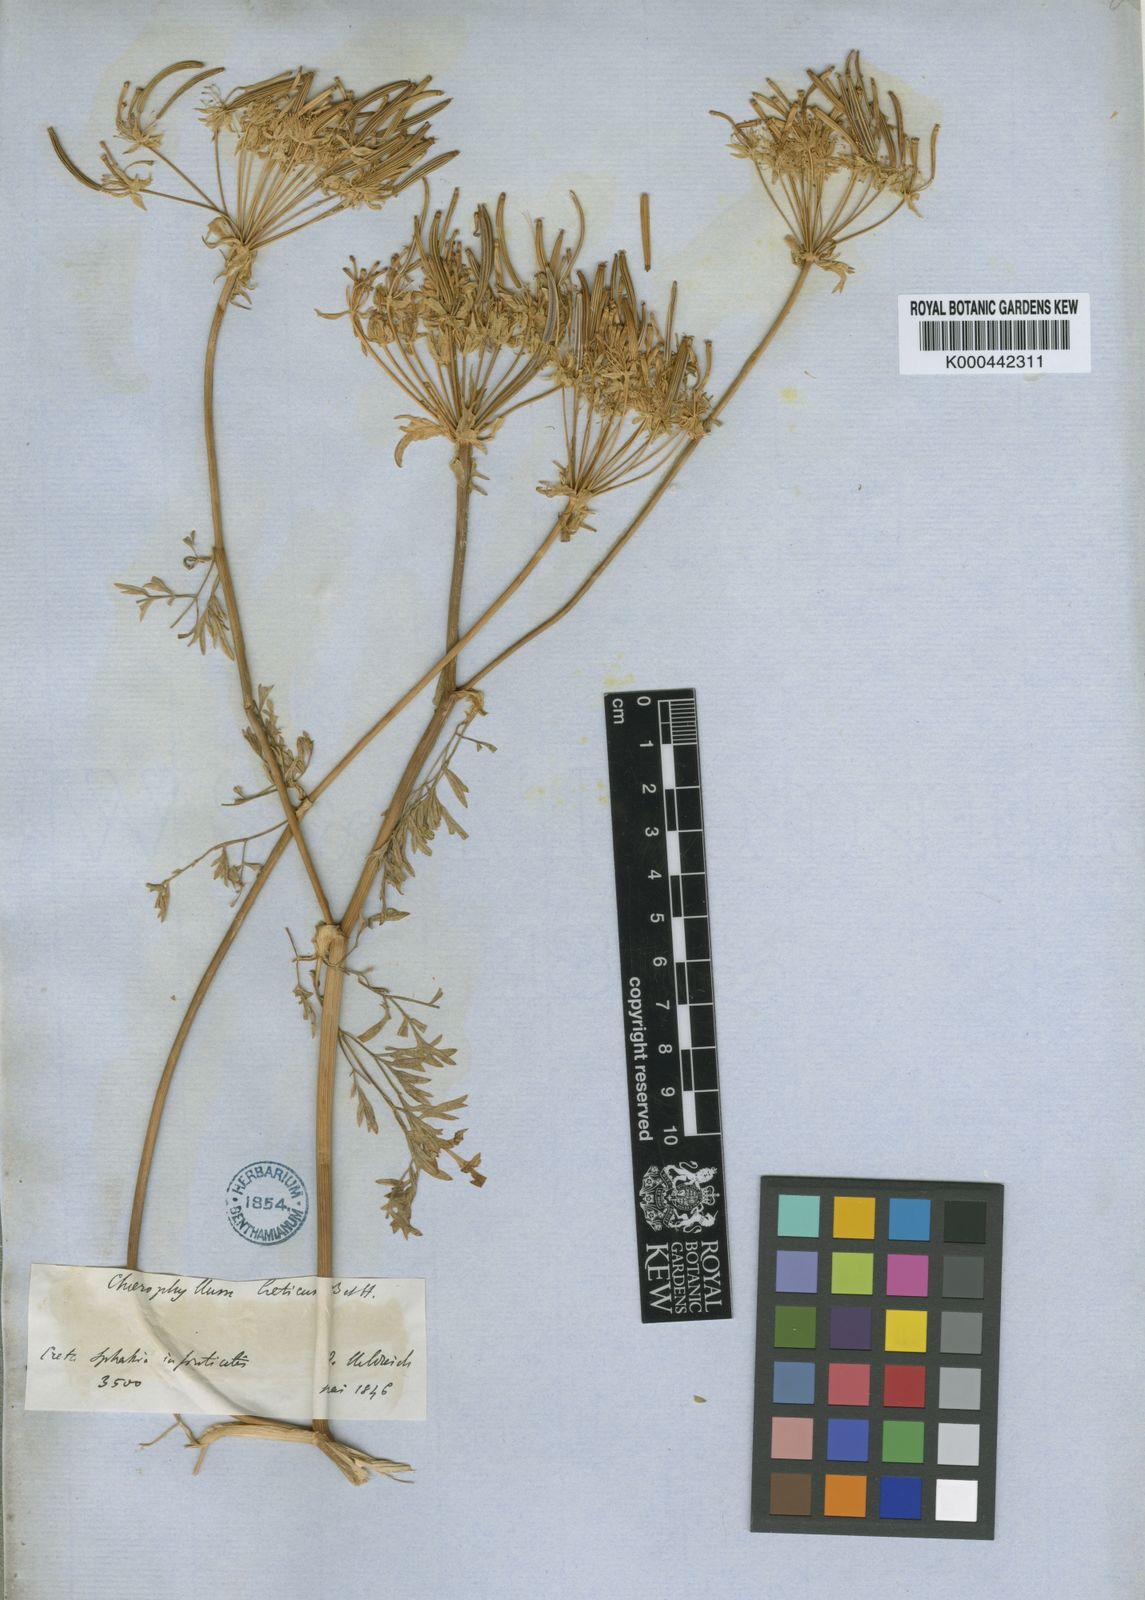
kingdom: Plantae
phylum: Tracheophyta
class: Magnoliopsida
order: Apiales
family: Apiaceae
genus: Chaerophyllum
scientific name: Chaerophyllum creticum
